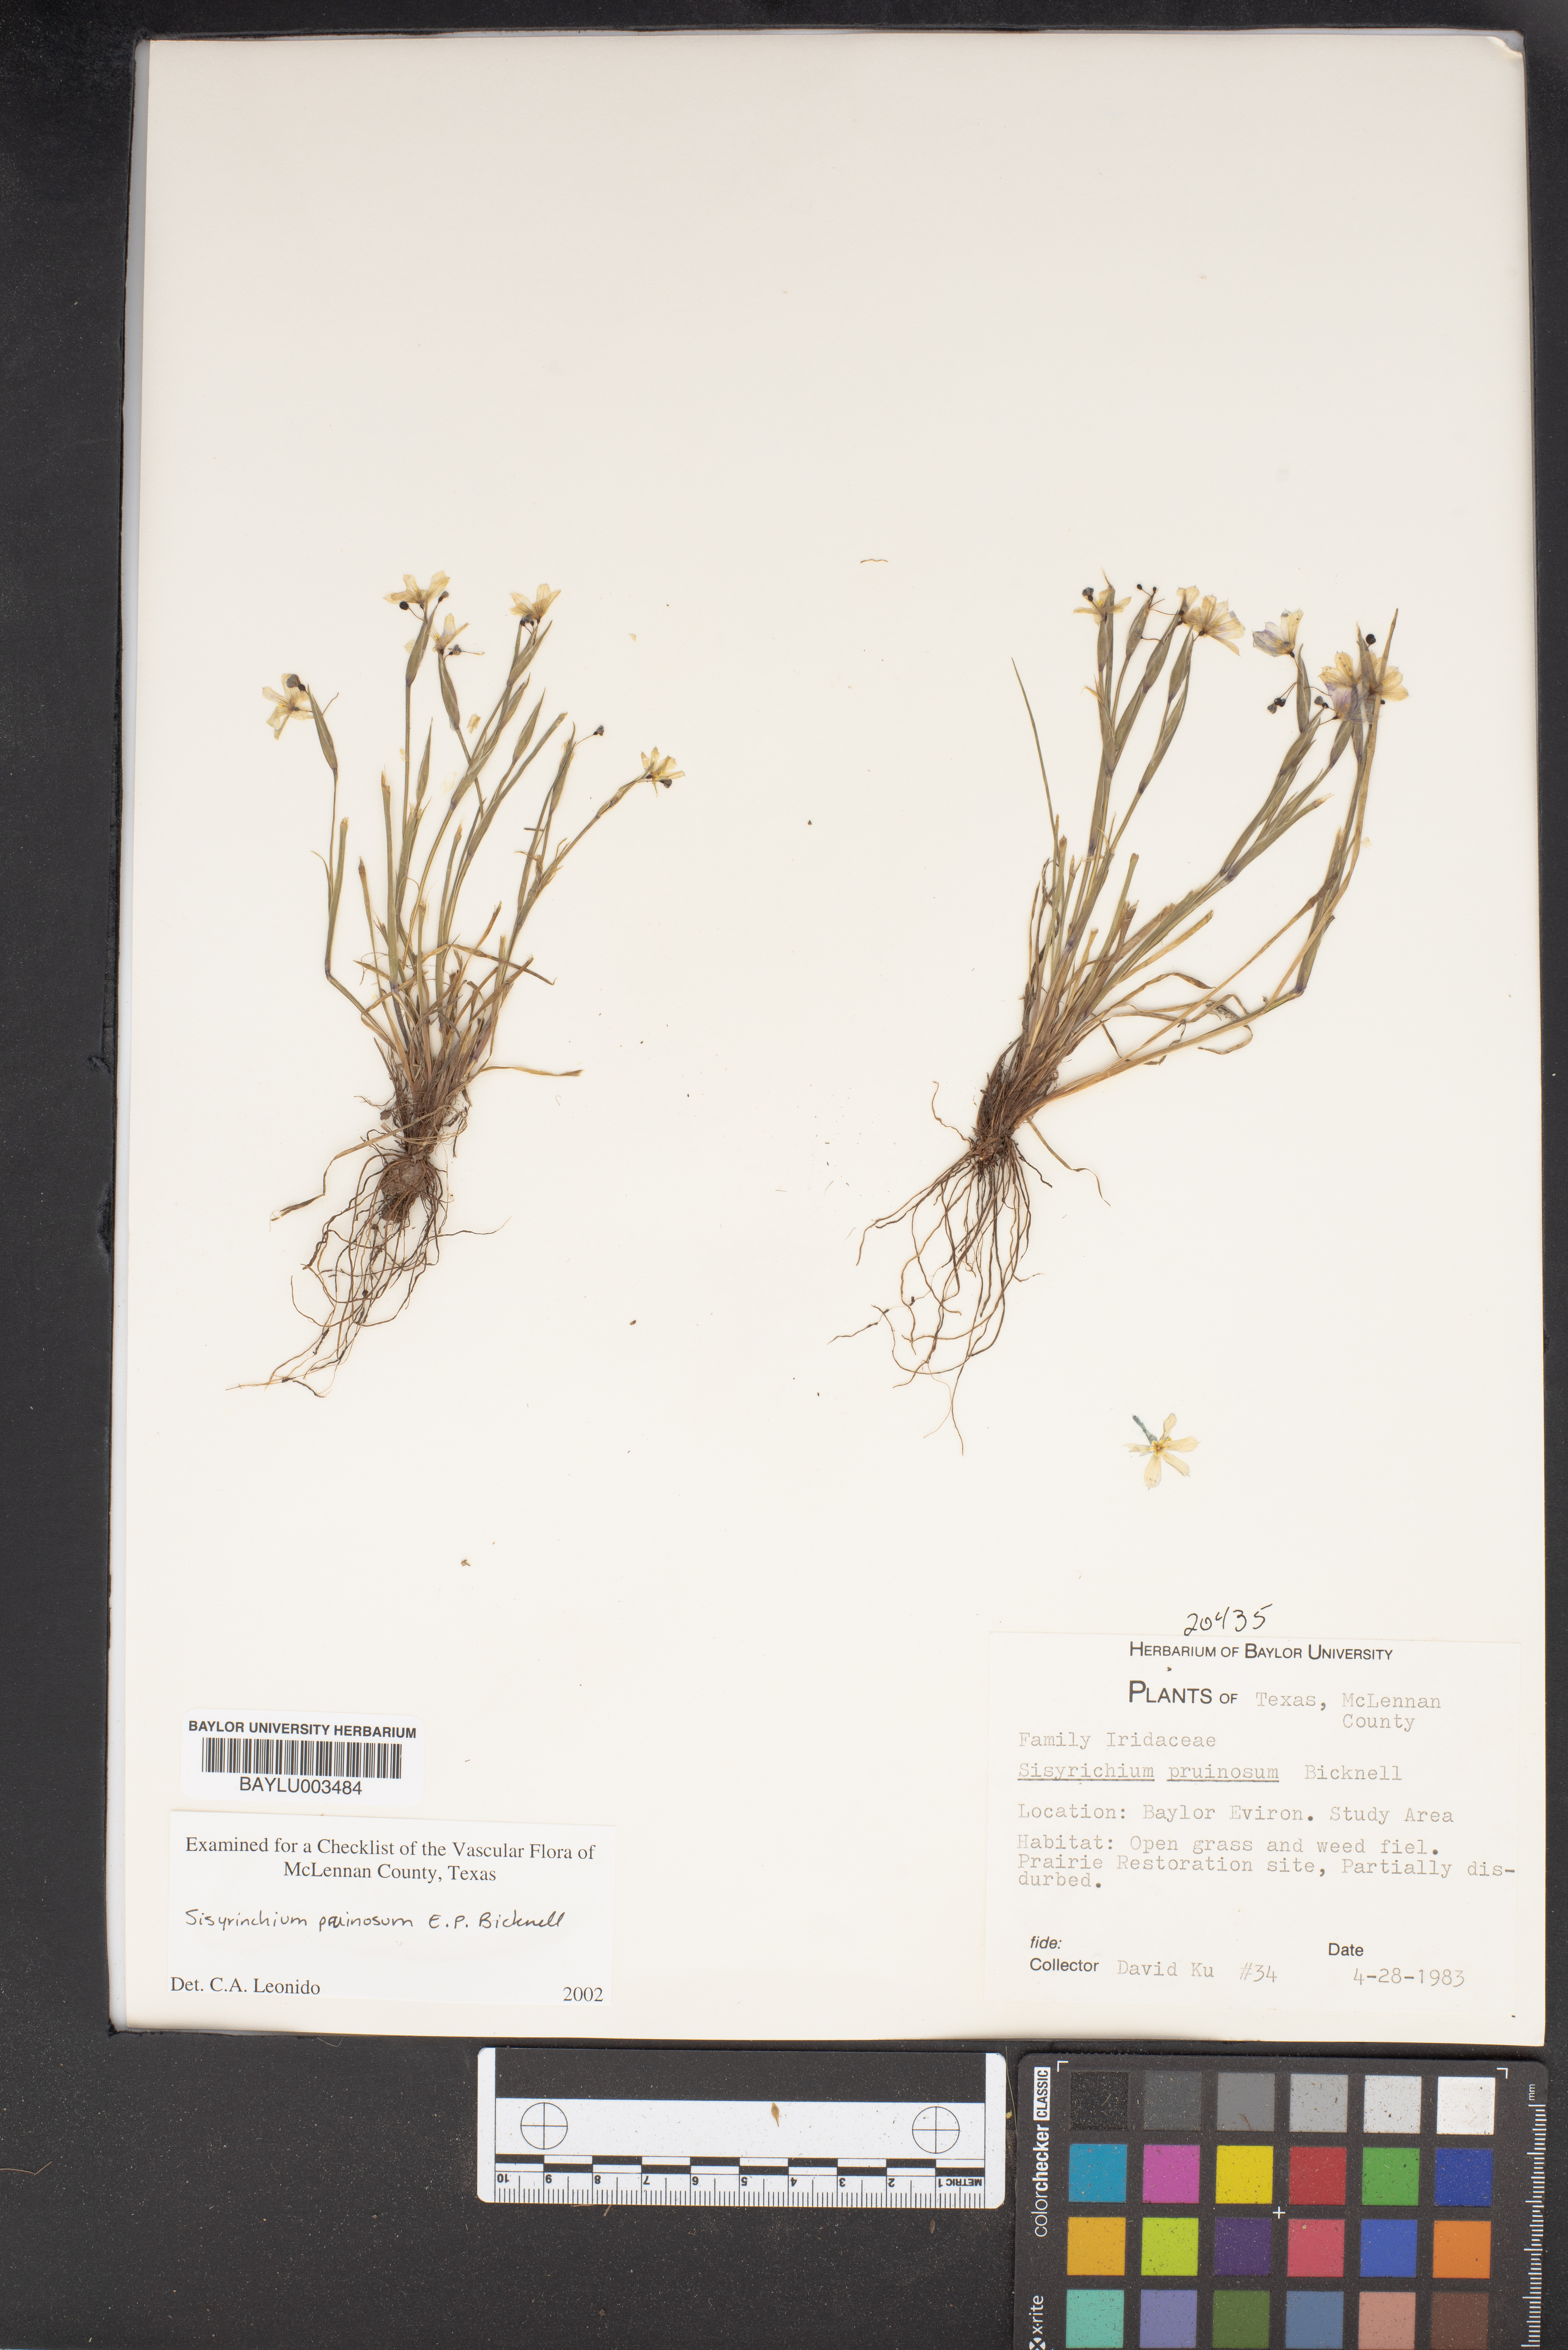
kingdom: Plantae
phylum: Tracheophyta
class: Liliopsida
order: Asparagales
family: Iridaceae
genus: Sisyrinchium
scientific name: Sisyrinchium pruinosum
